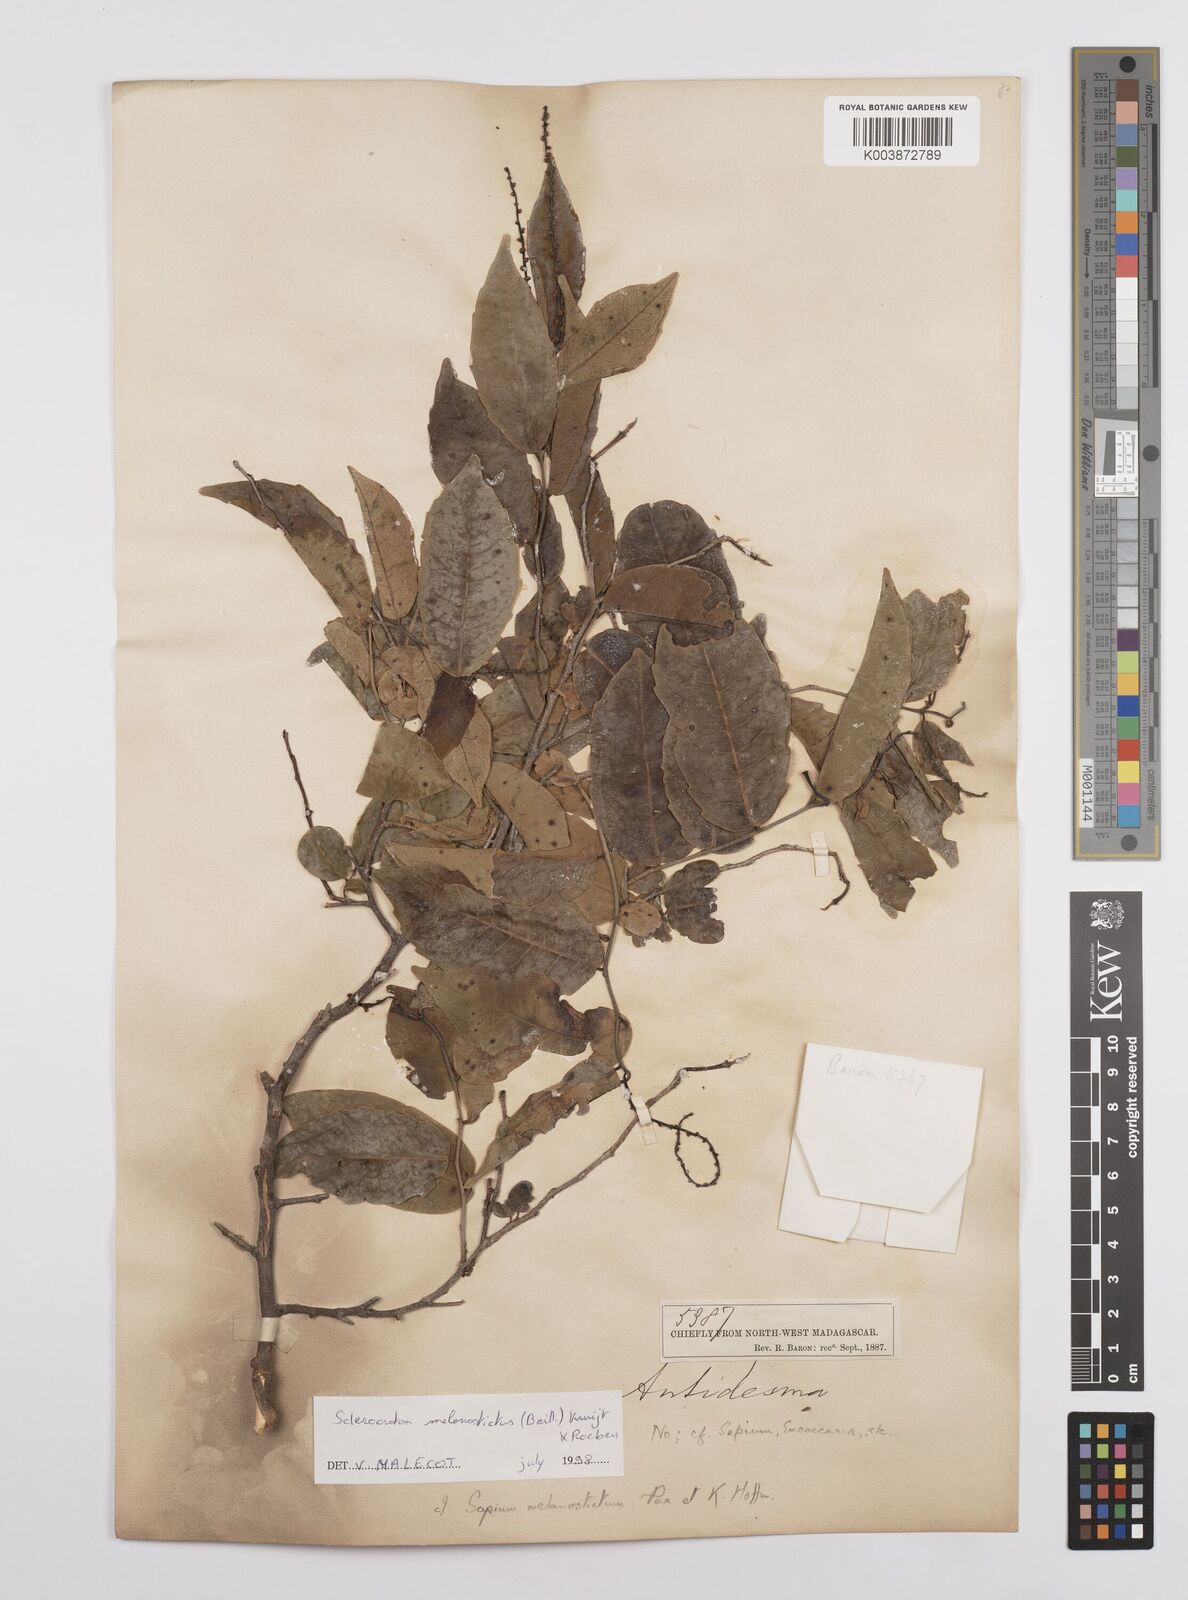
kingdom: Plantae
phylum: Tracheophyta
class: Magnoliopsida
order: Malpighiales
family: Euphorbiaceae
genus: Sclerocroton
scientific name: Sclerocroton melanostictus
